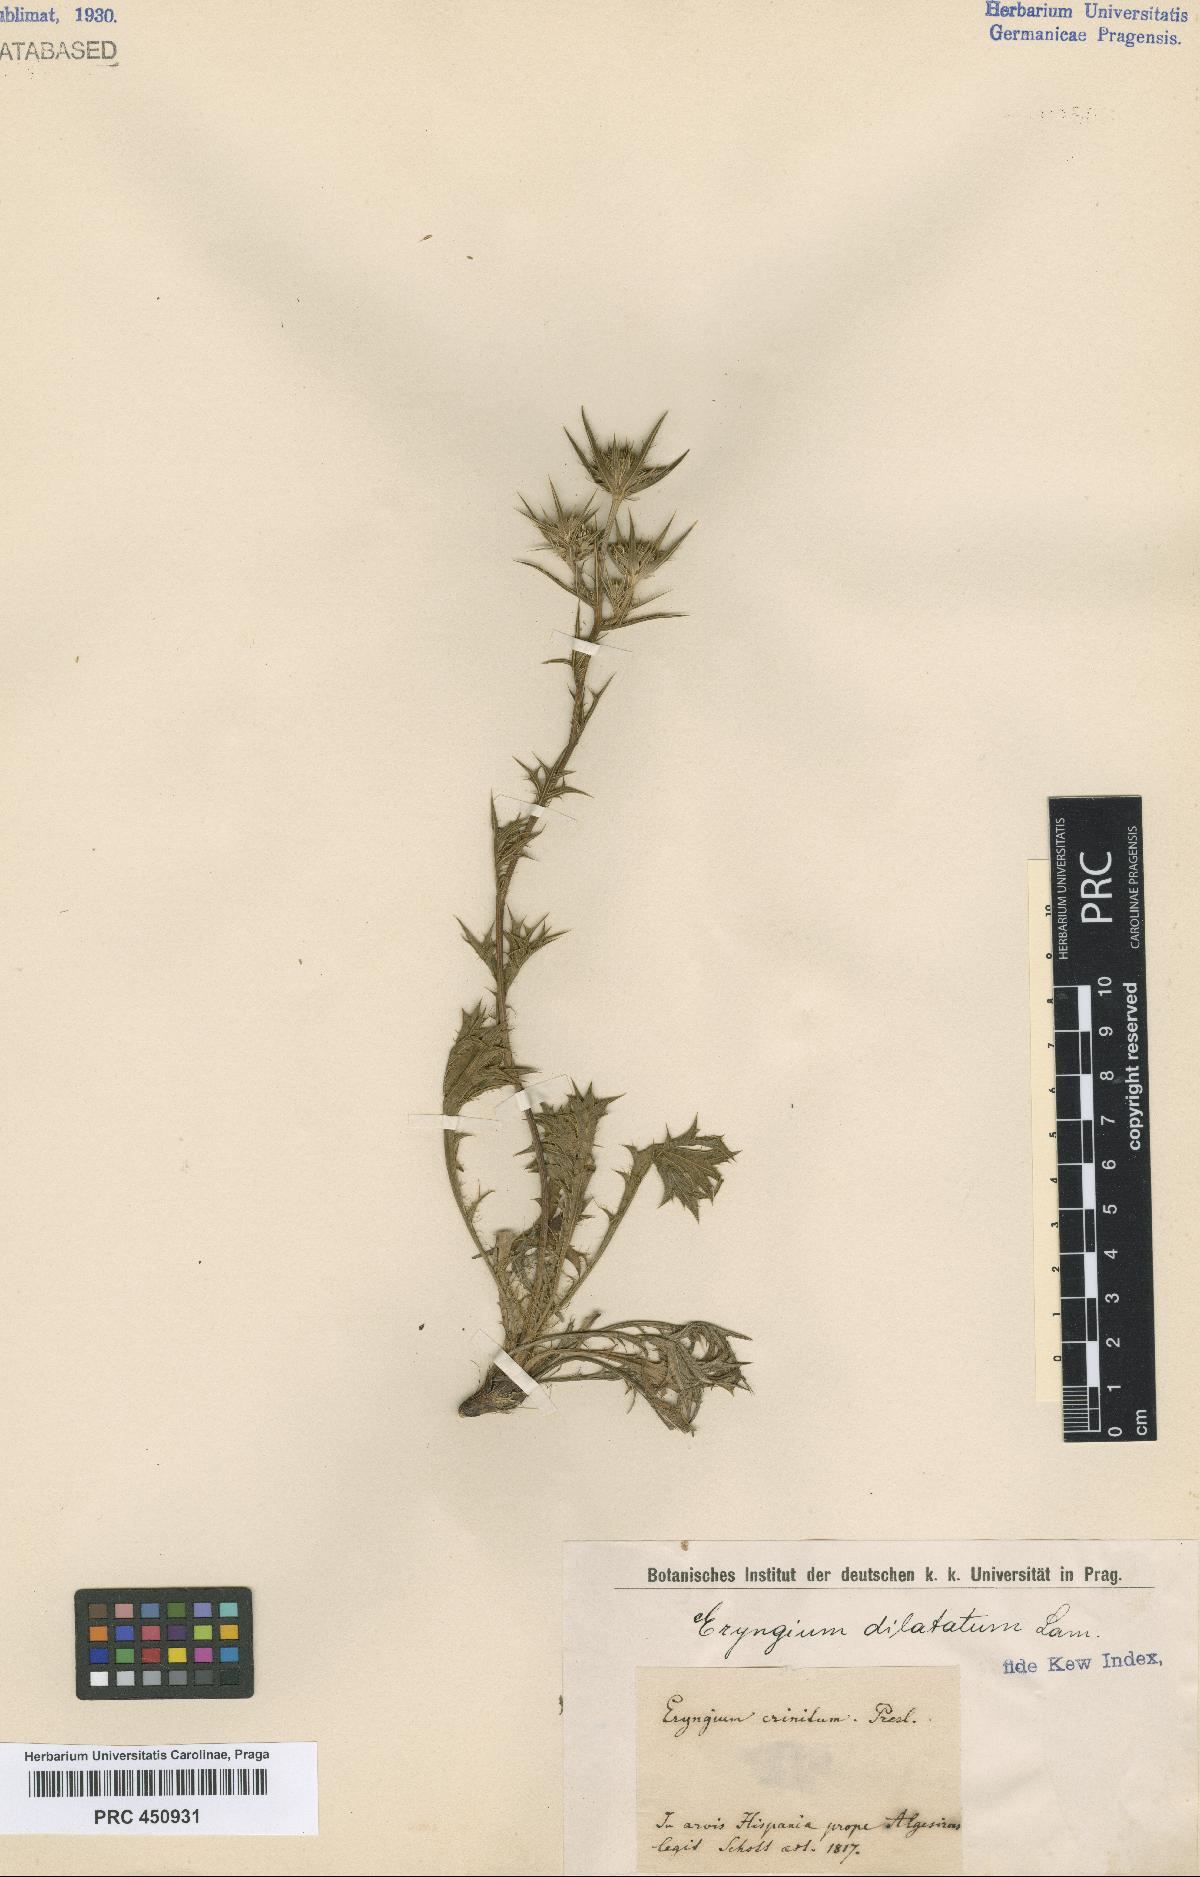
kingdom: Plantae
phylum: Tracheophyta
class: Magnoliopsida
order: Apiales
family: Apiaceae
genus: Eryngium
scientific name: Eryngium dilatatum
